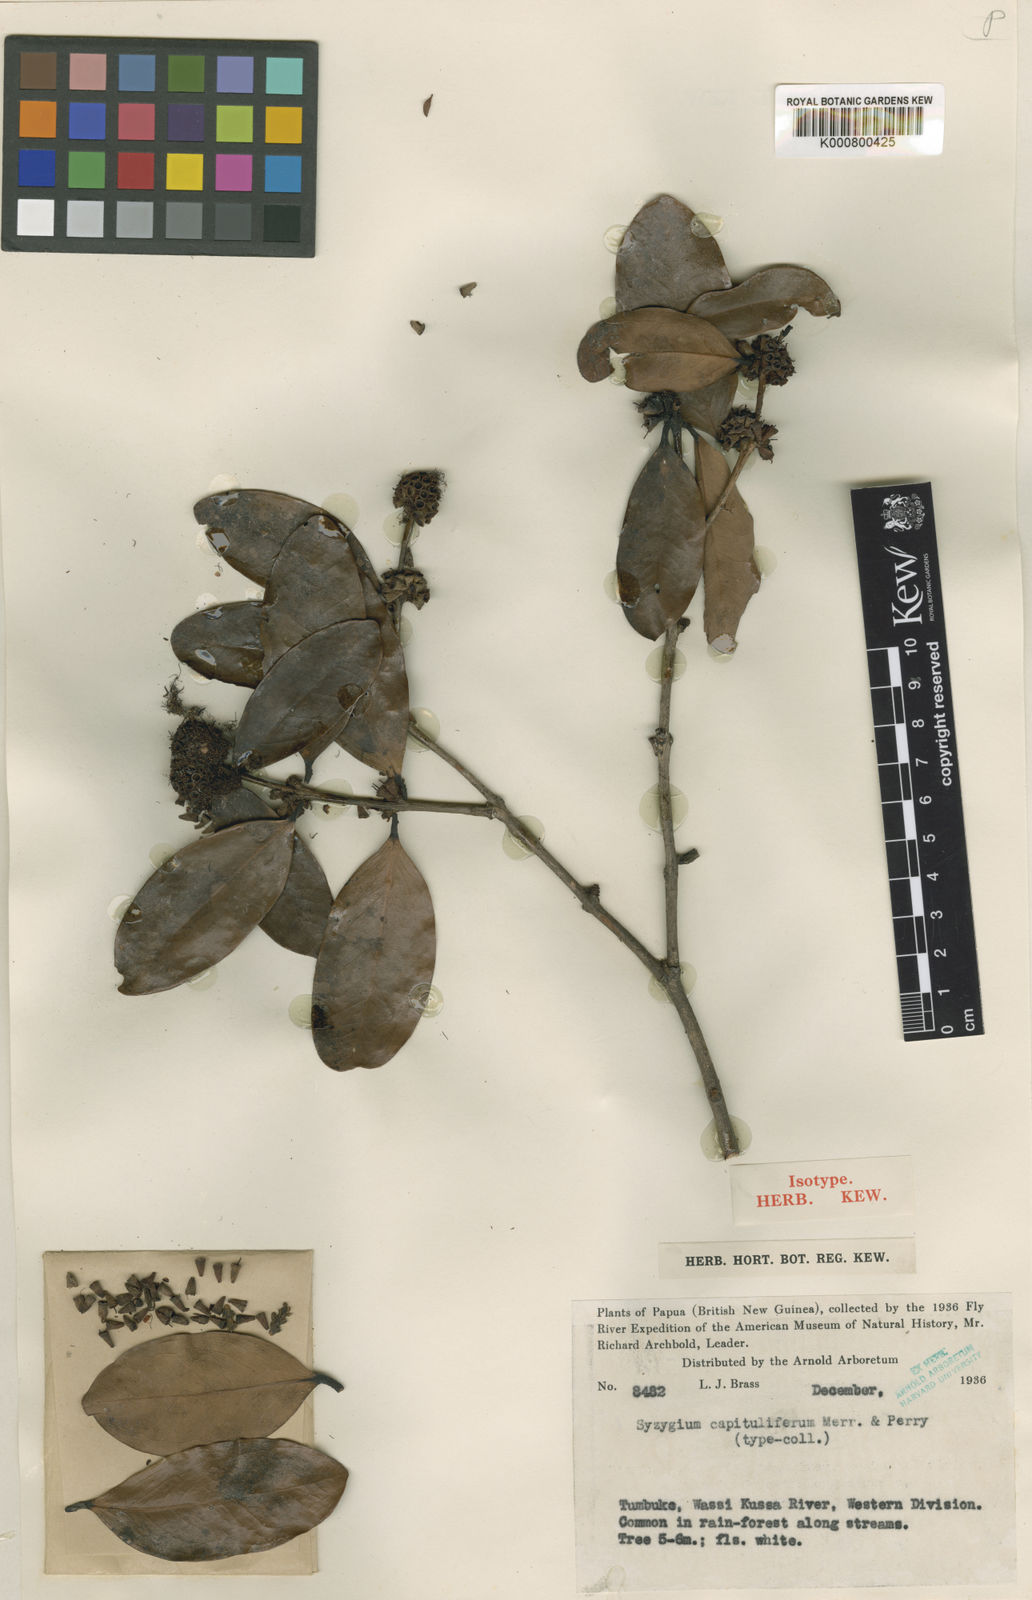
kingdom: Plantae
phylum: Tracheophyta
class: Magnoliopsida
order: Myrtales
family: Myrtaceae
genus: Syzygium
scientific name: Syzygium capituliferum
